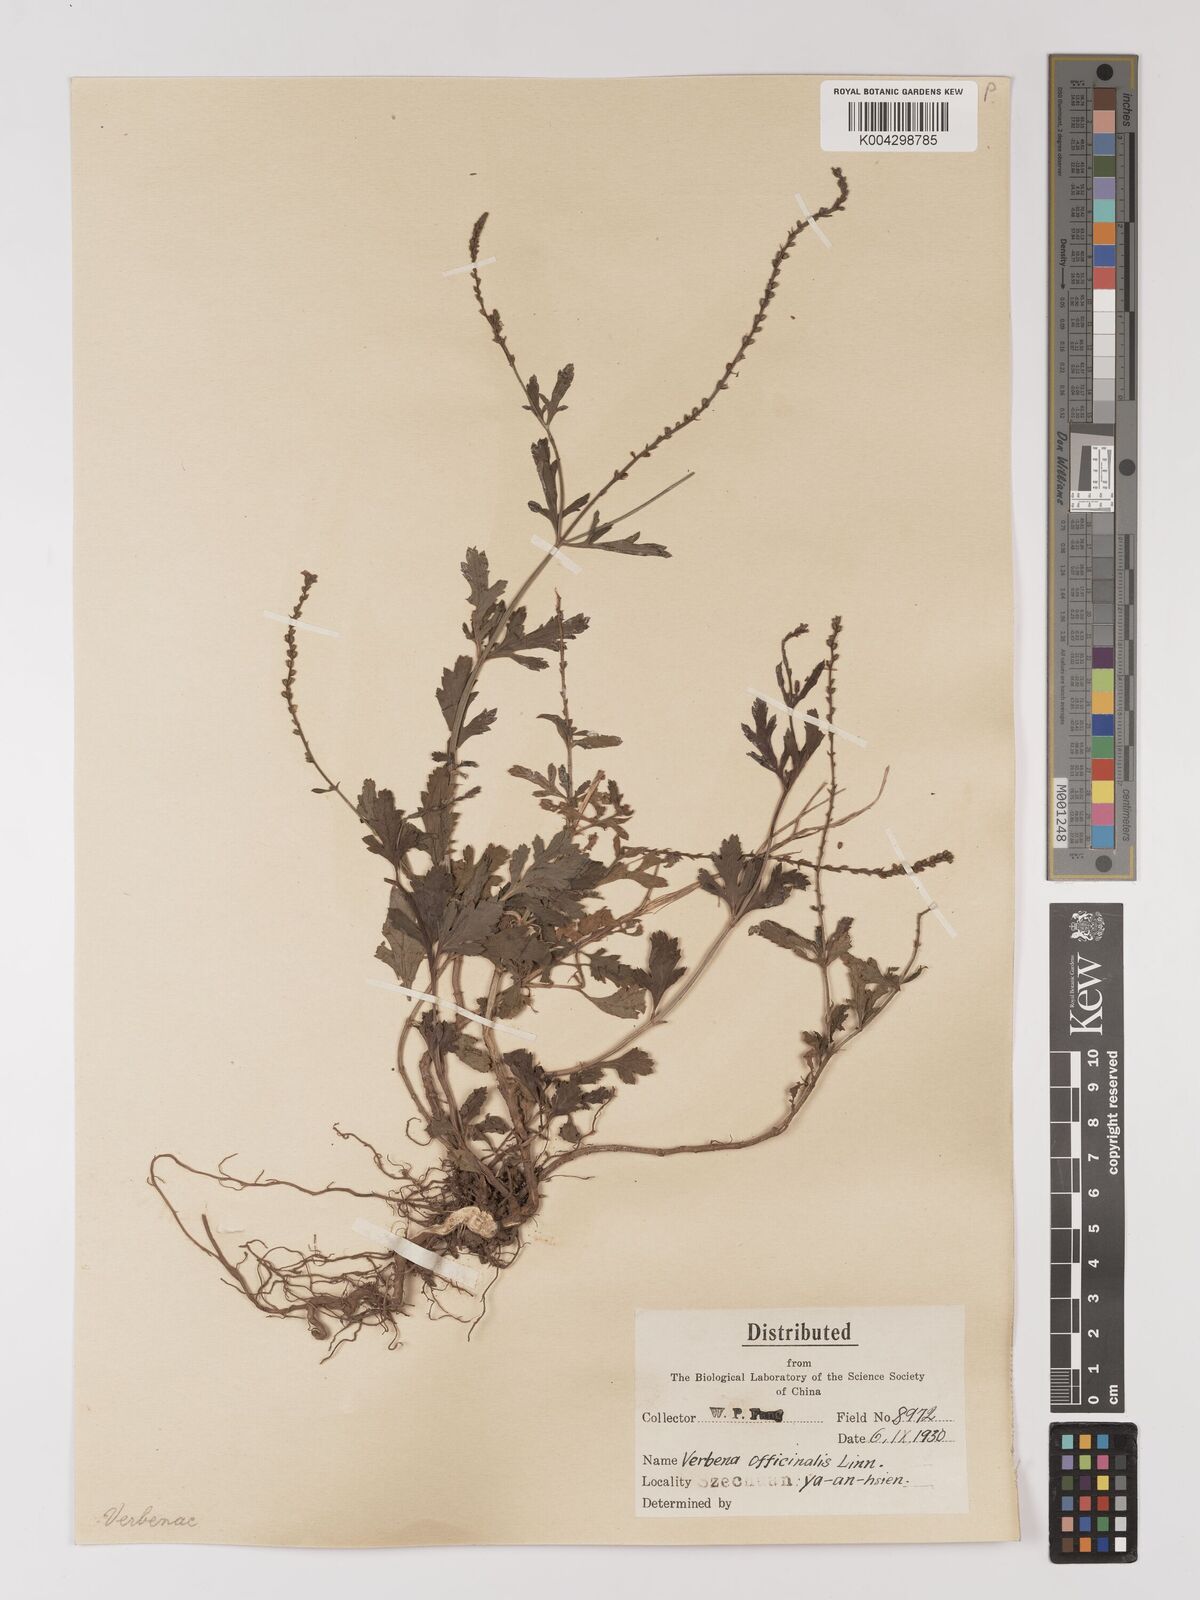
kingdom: Plantae
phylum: Tracheophyta
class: Magnoliopsida
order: Lamiales
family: Verbenaceae
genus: Verbena
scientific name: Verbena officinalis
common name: Vervain
